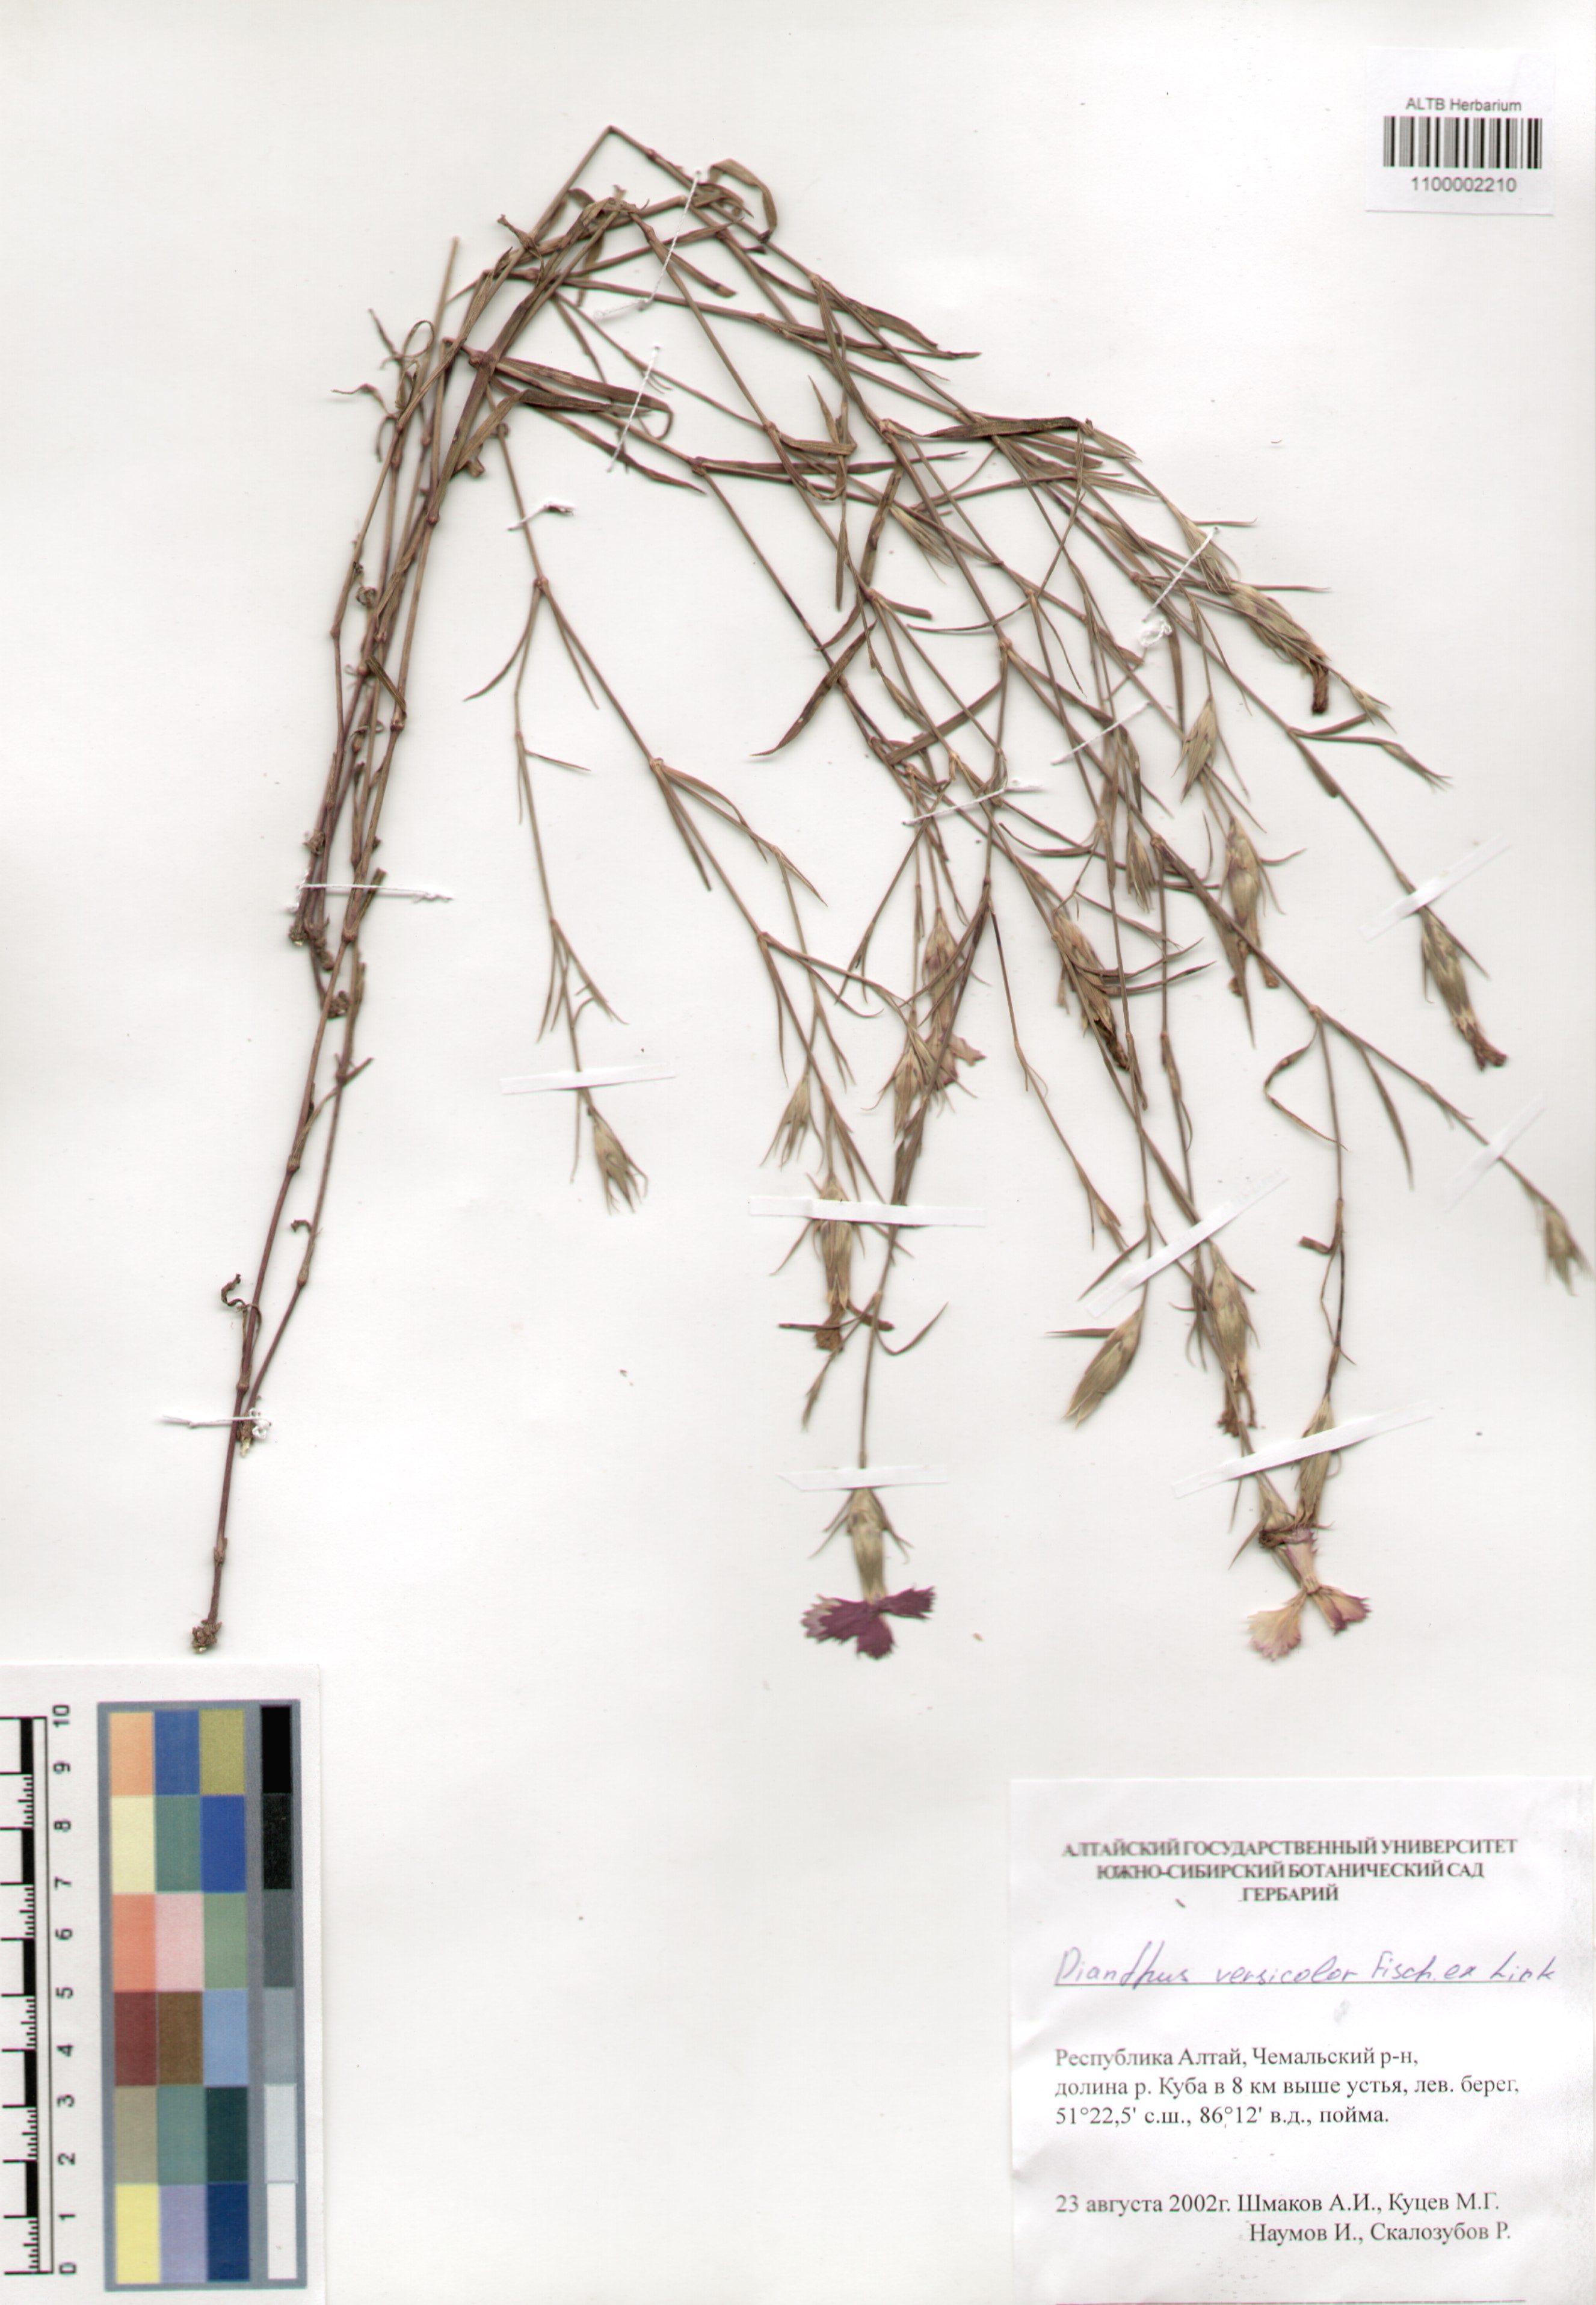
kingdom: Plantae
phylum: Tracheophyta
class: Magnoliopsida
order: Caryophyllales
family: Caryophyllaceae
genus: Dianthus
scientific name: Dianthus chinensis
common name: Rainbow pink
